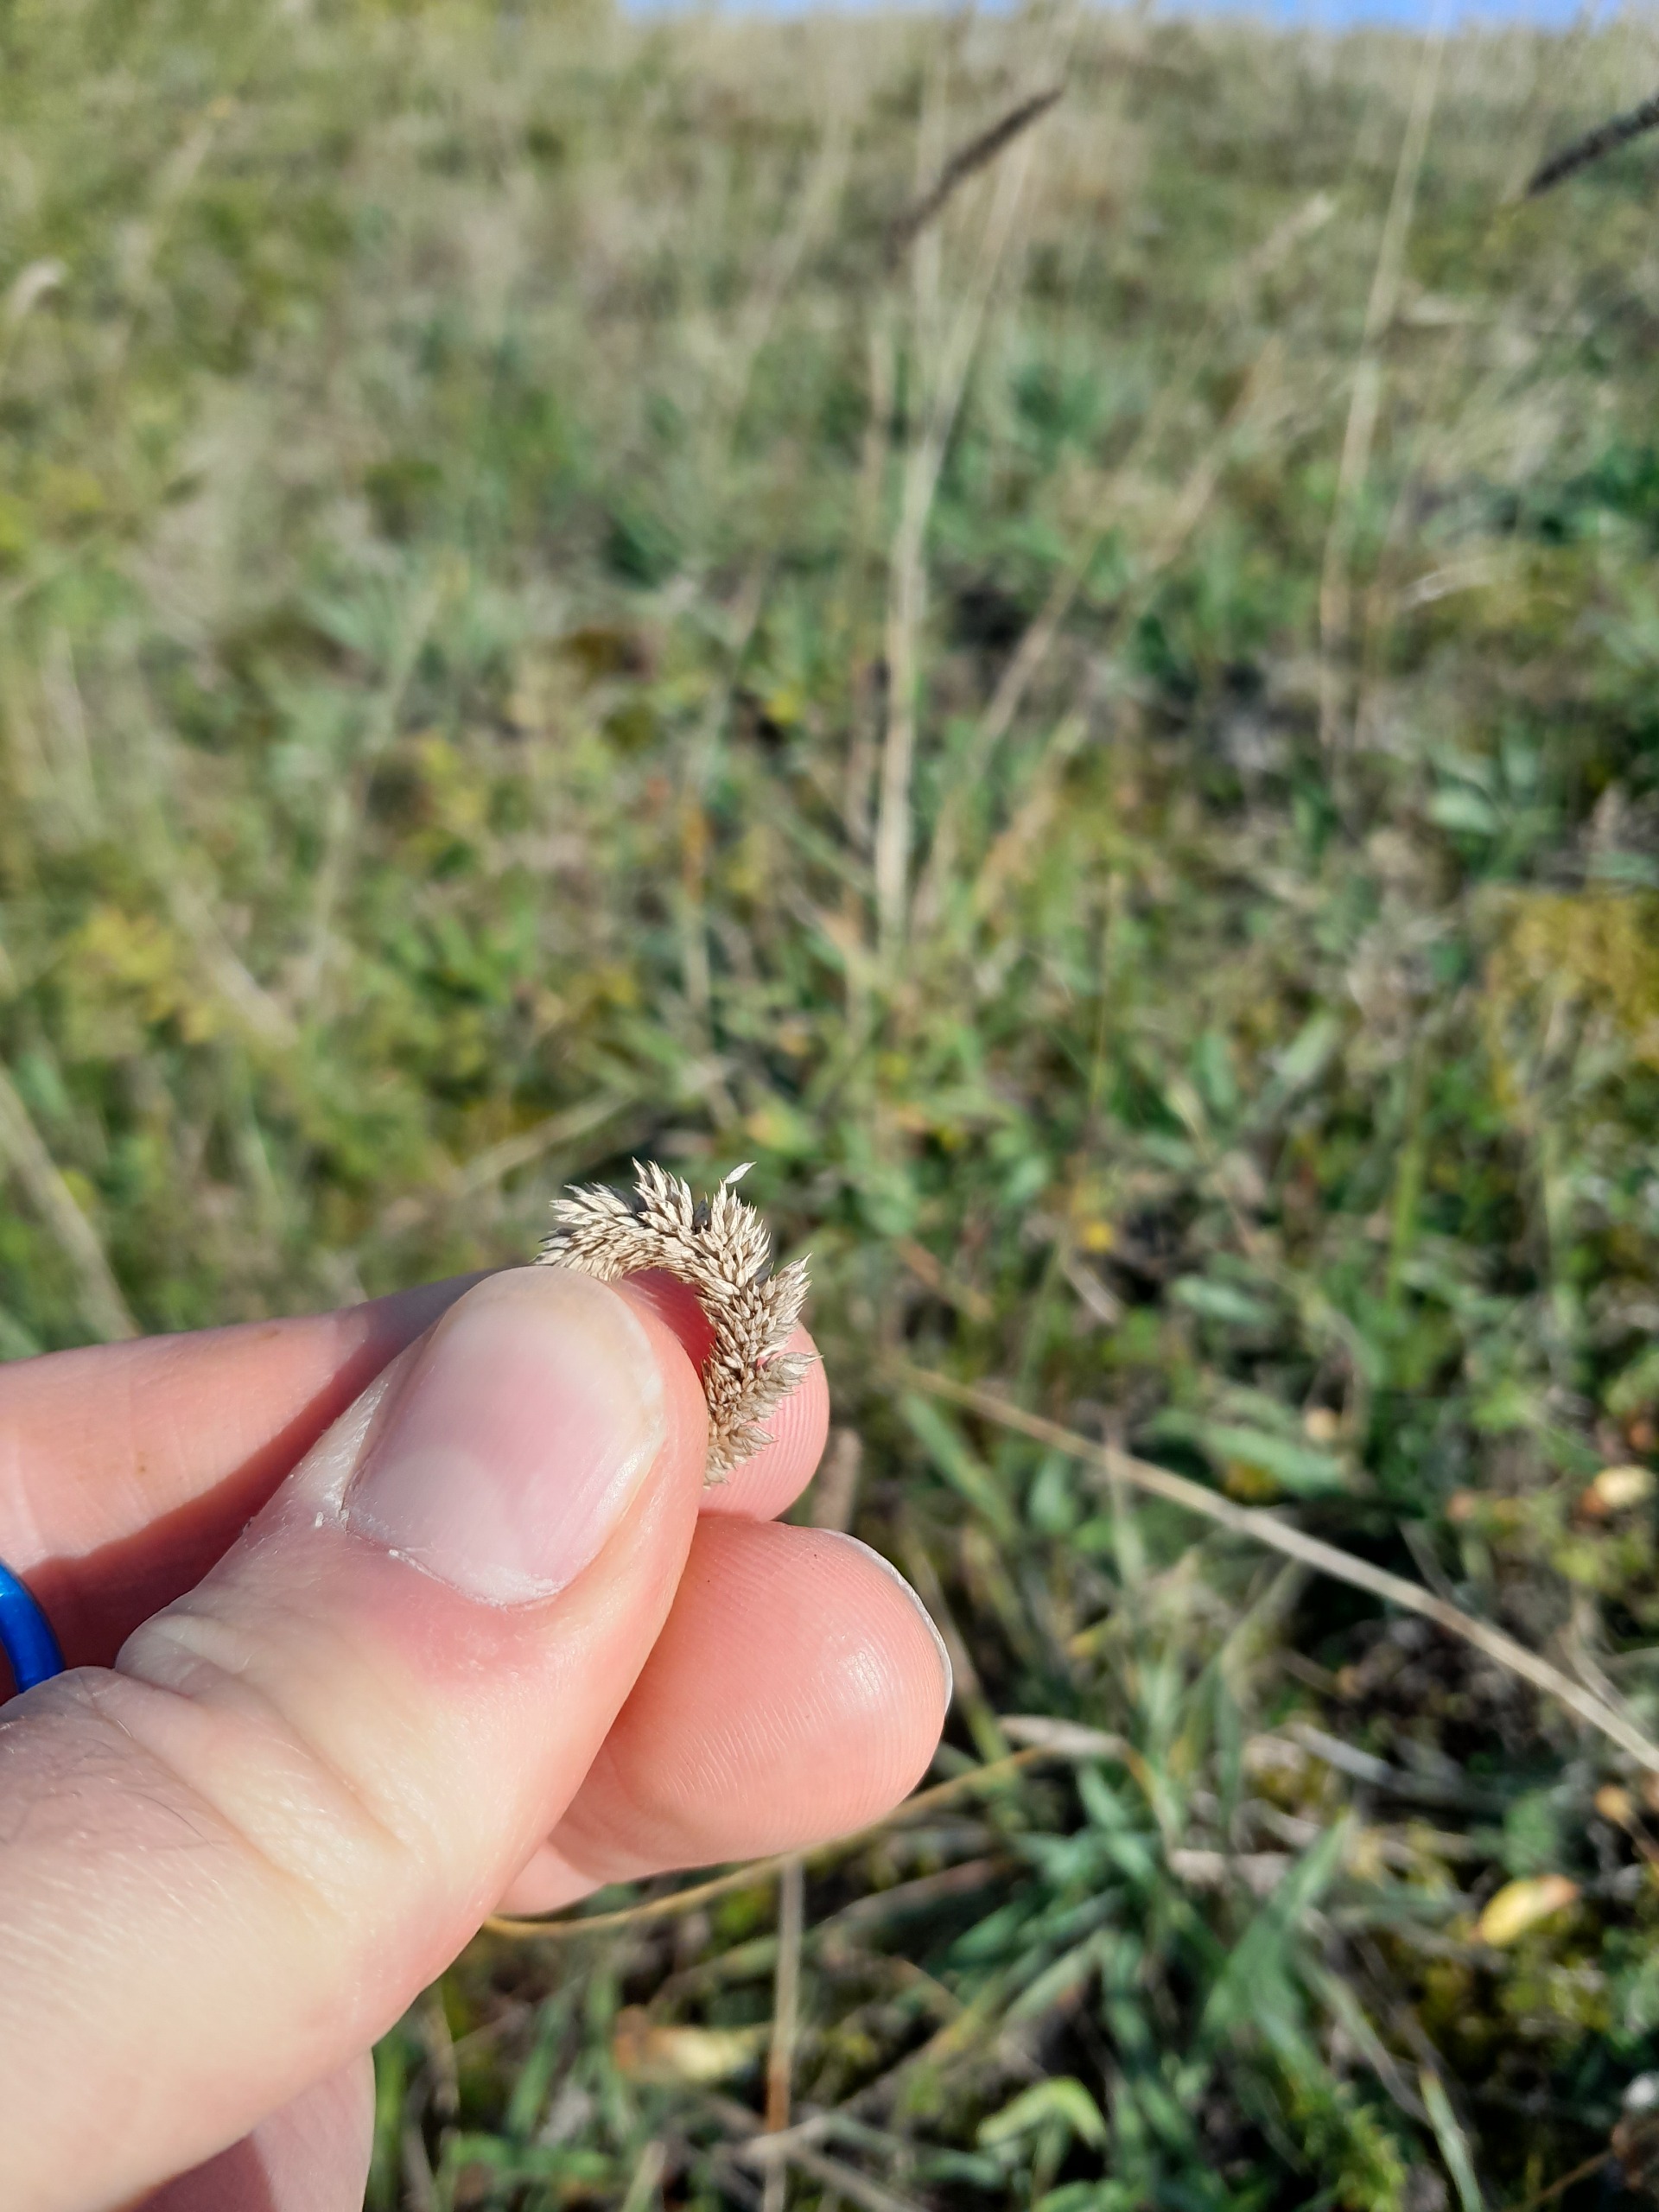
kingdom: Plantae
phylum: Tracheophyta
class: Liliopsida
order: Poales
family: Poaceae
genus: Phleum
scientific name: Phleum phleoides
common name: Glat rottehale
